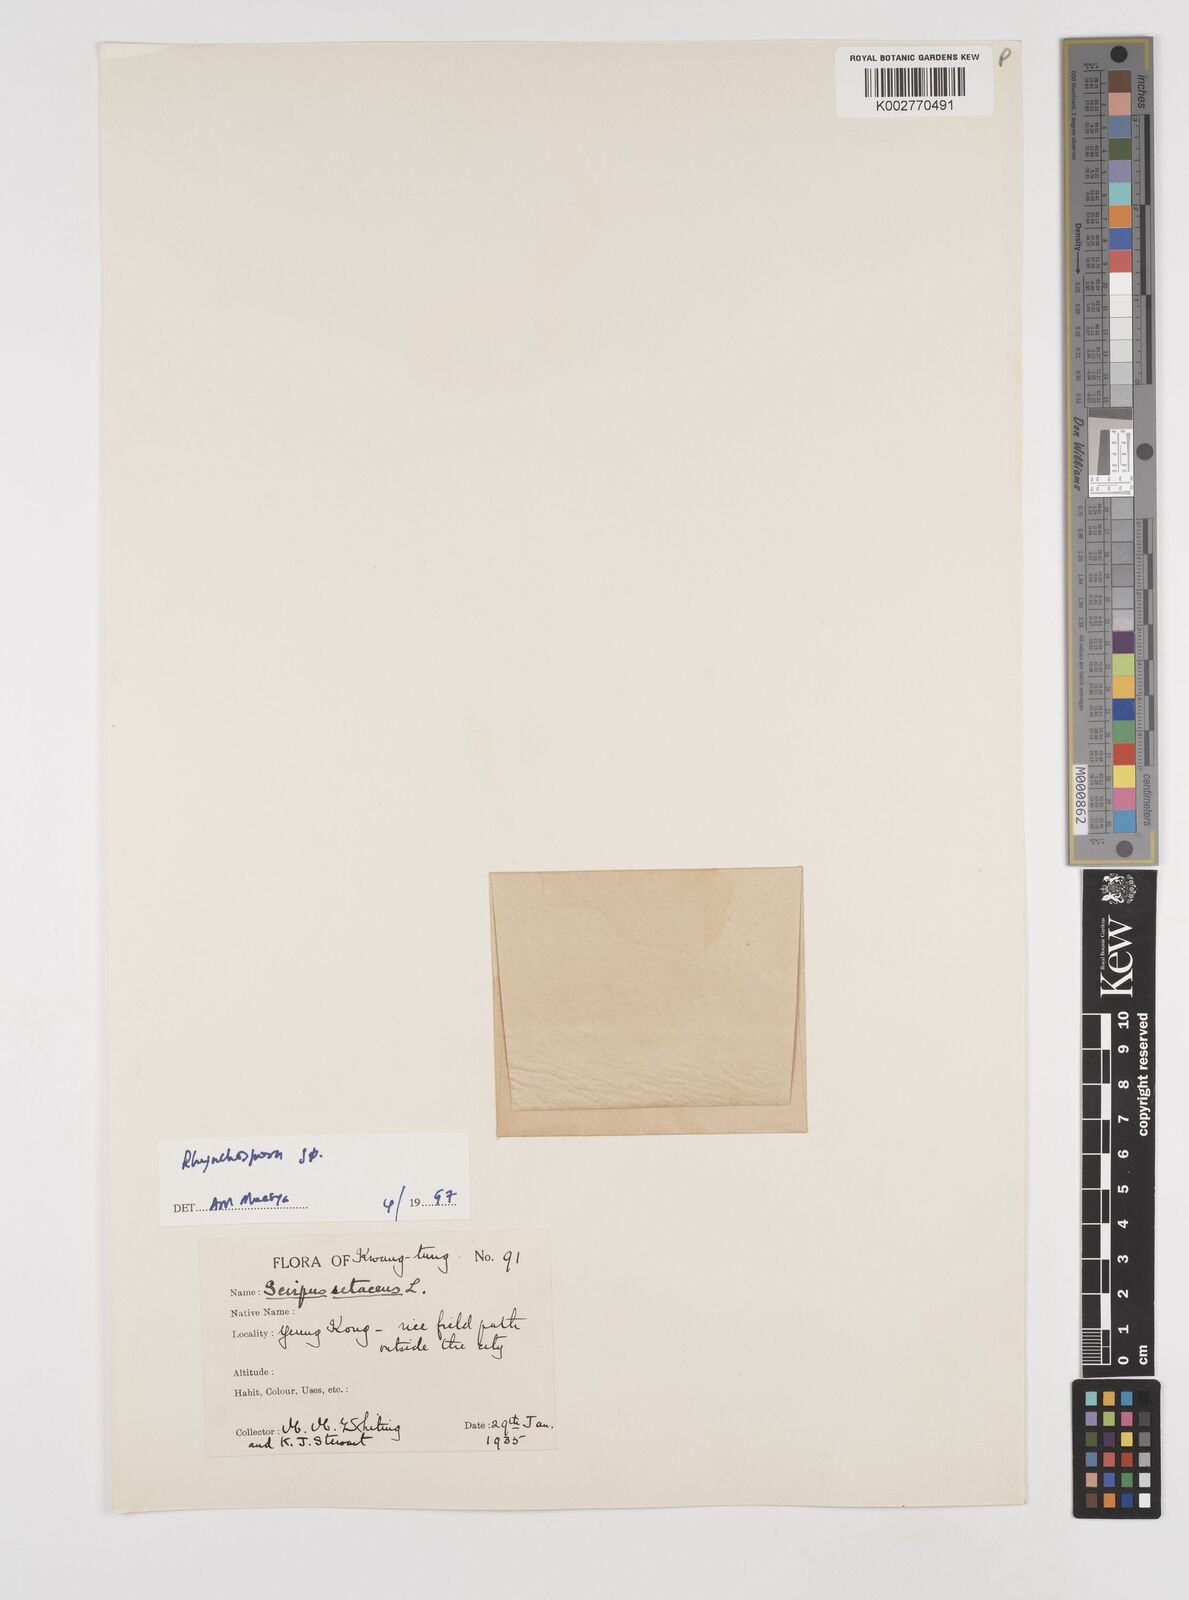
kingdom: Plantae
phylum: Tracheophyta
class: Liliopsida
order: Poales
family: Cyperaceae
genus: Rhynchospora
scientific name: Rhynchospora
